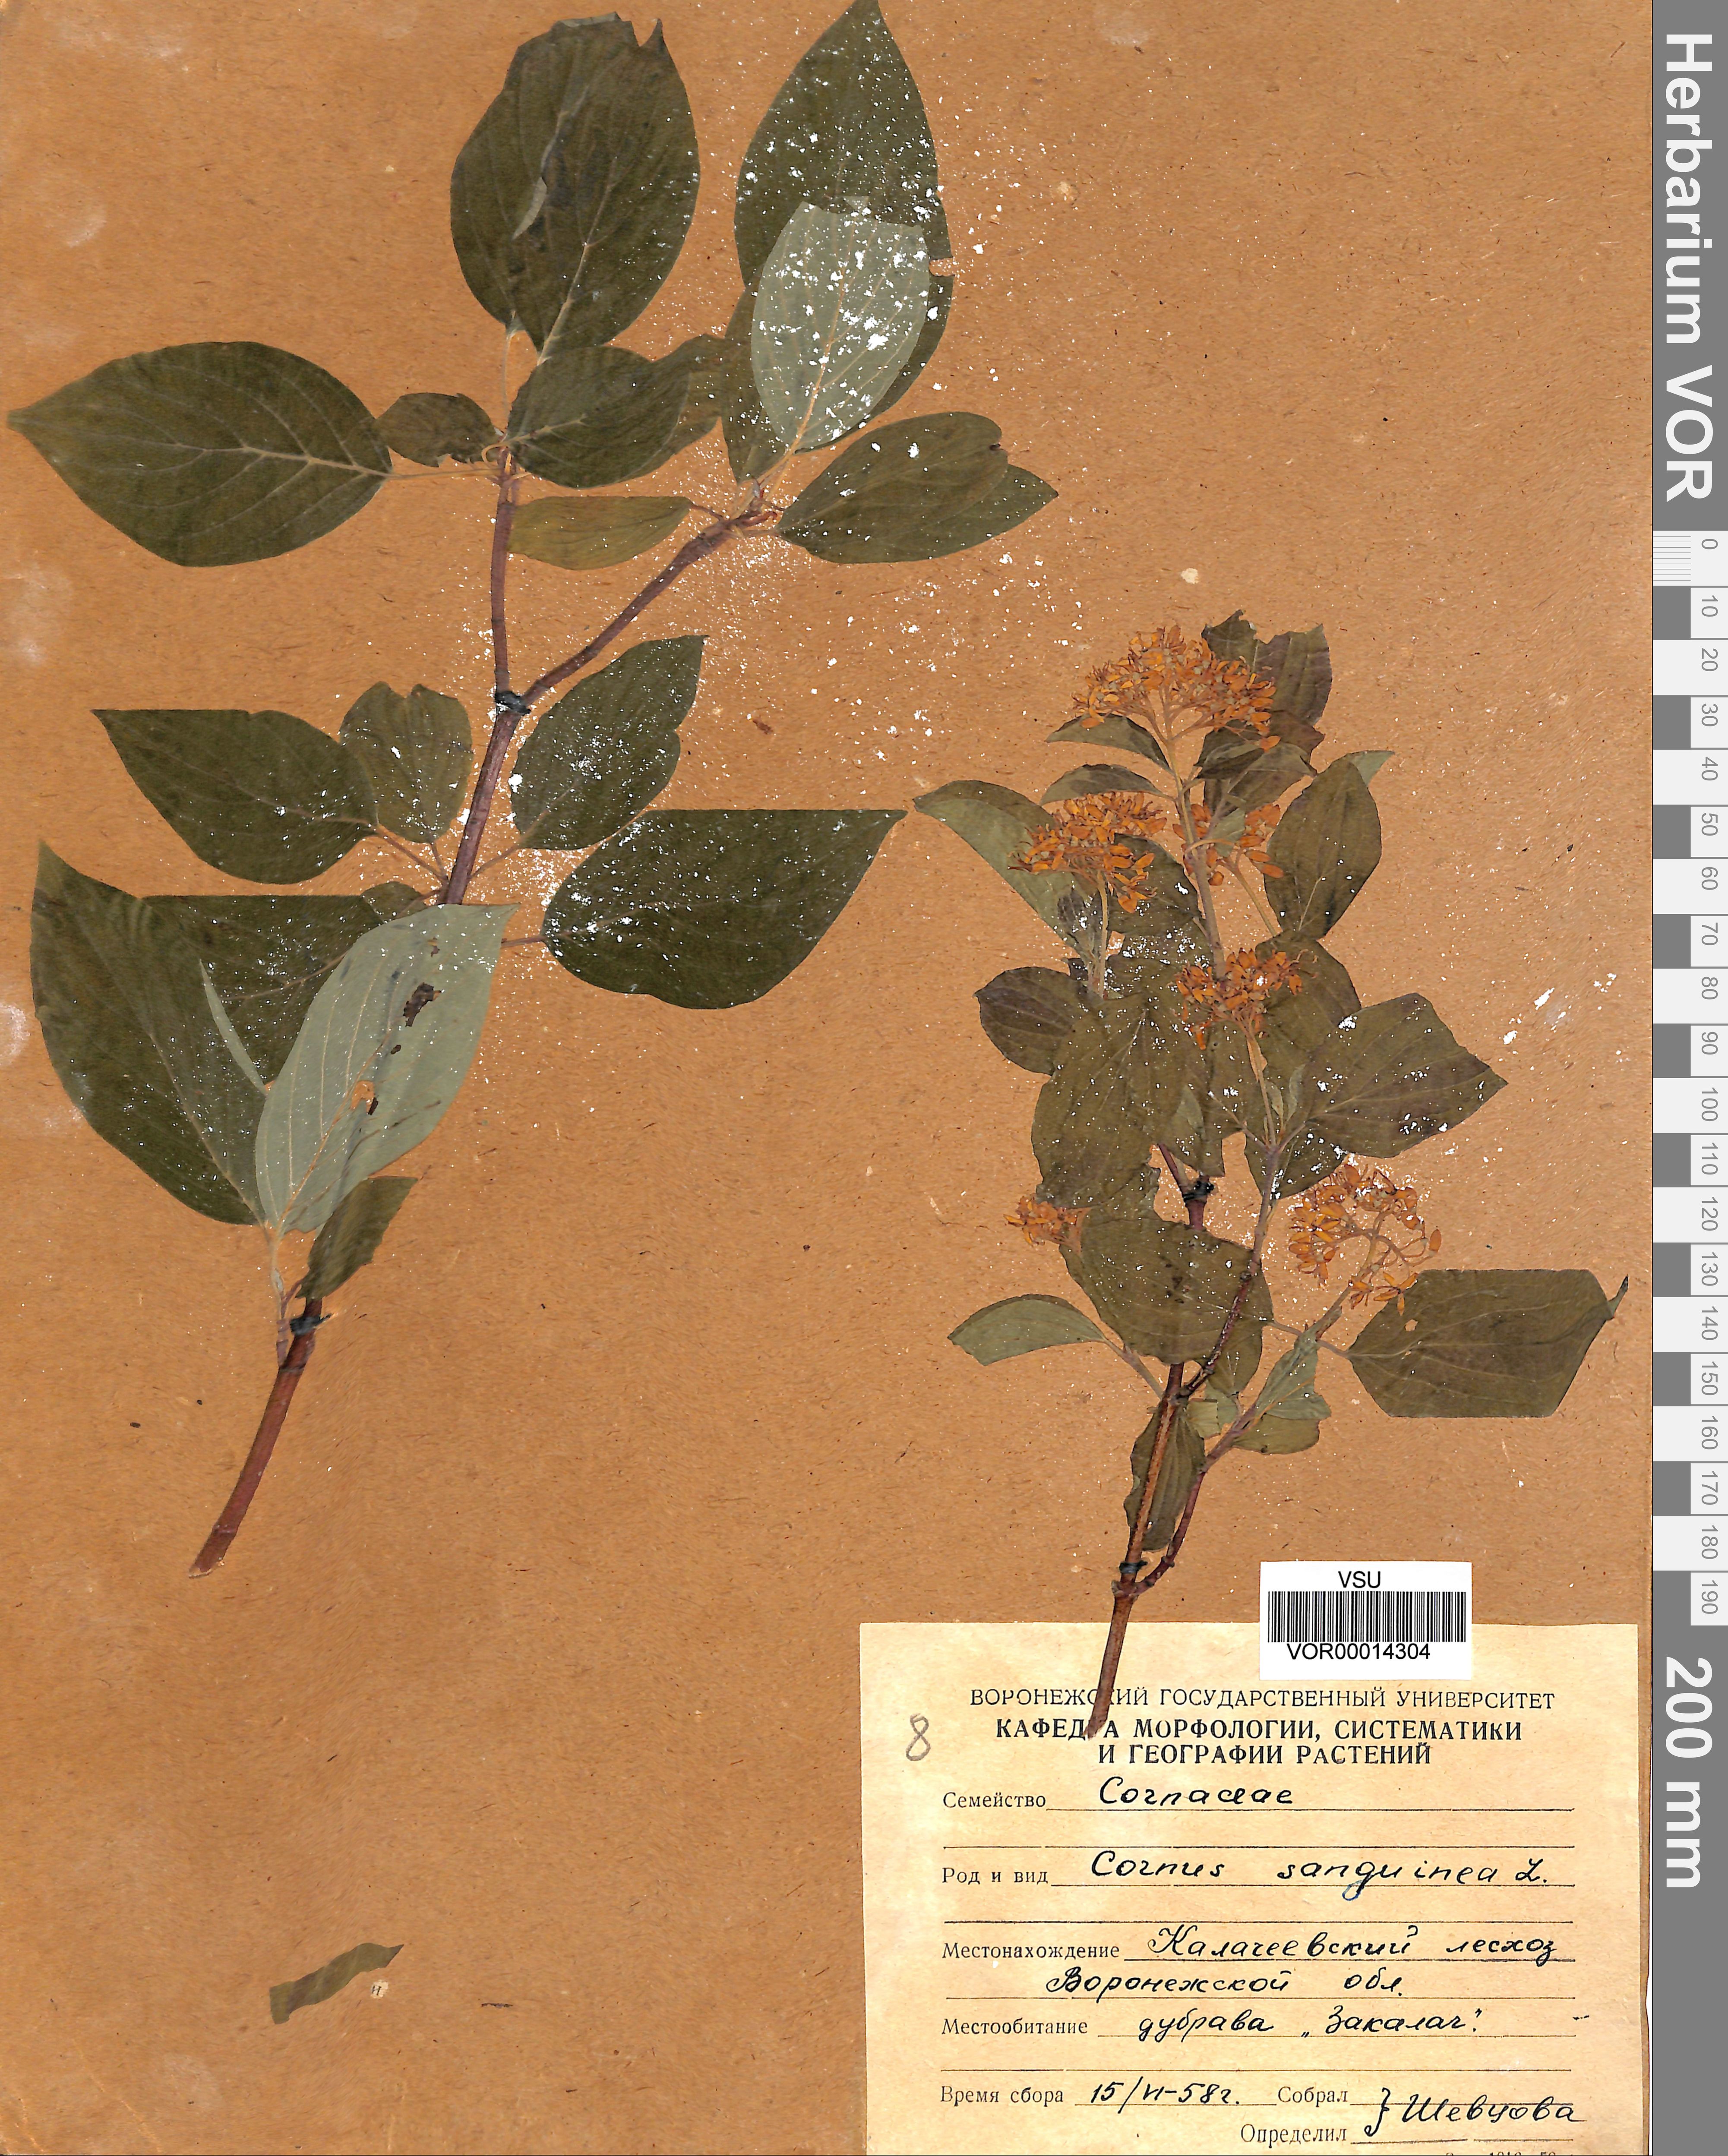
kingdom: Plantae
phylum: Tracheophyta
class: Magnoliopsida
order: Cornales
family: Cornaceae
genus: Cornus
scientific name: Cornus sanguinea
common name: Dogwood
